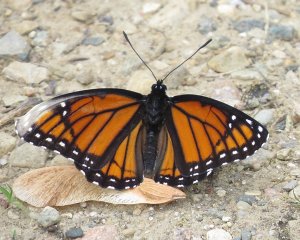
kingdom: Animalia
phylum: Arthropoda
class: Insecta
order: Lepidoptera
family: Nymphalidae
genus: Limenitis
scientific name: Limenitis archippus
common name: Viceroy
